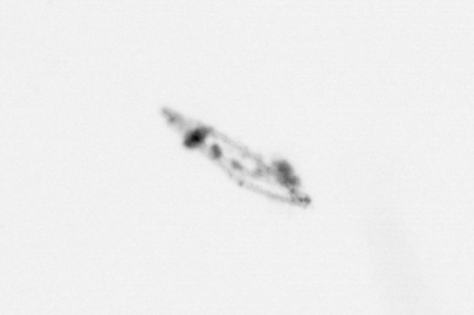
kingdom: Animalia
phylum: Arthropoda
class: Copepoda
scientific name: Copepoda
